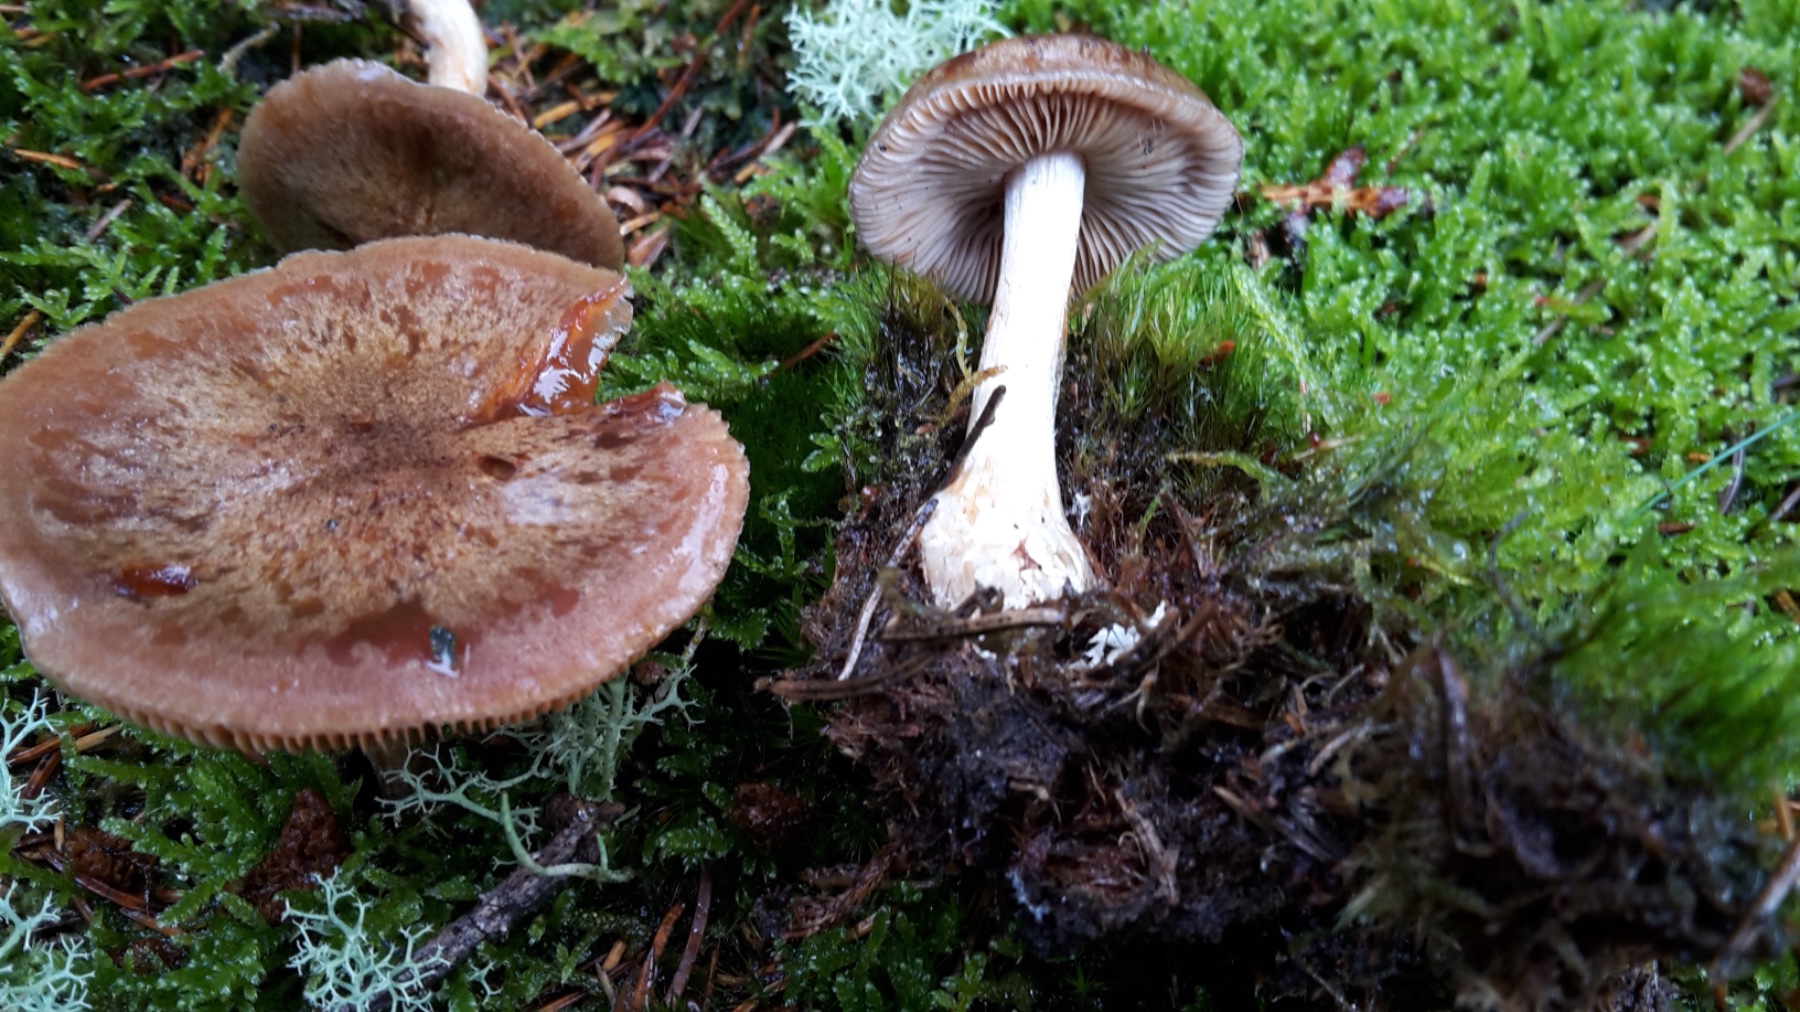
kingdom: Fungi
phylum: Basidiomycota
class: Agaricomycetes
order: Agaricales
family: Cortinariaceae
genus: Thaxterogaster
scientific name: Thaxterogaster sphagnophilus
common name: vandplettet slørhat
